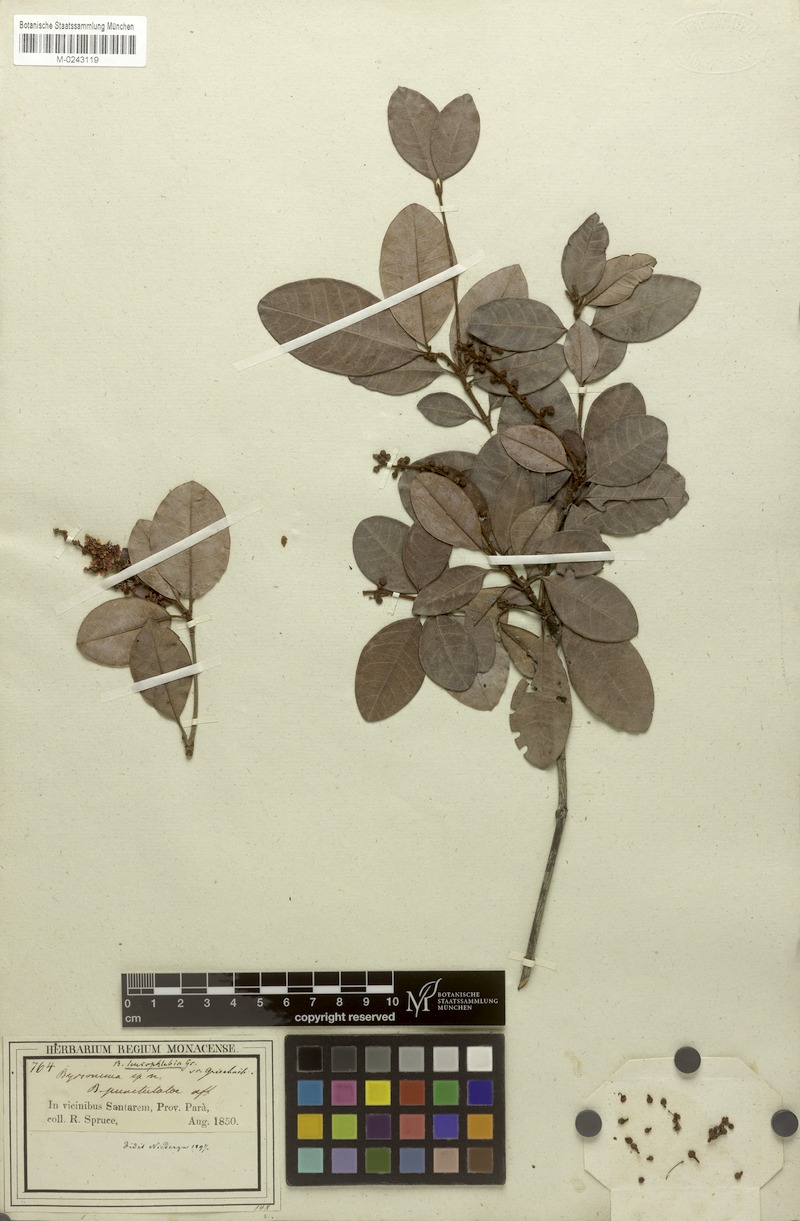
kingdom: Plantae
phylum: Tracheophyta
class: Magnoliopsida
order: Malpighiales
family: Malpighiaceae
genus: Byrsonima
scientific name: Byrsonima leucophlebia
